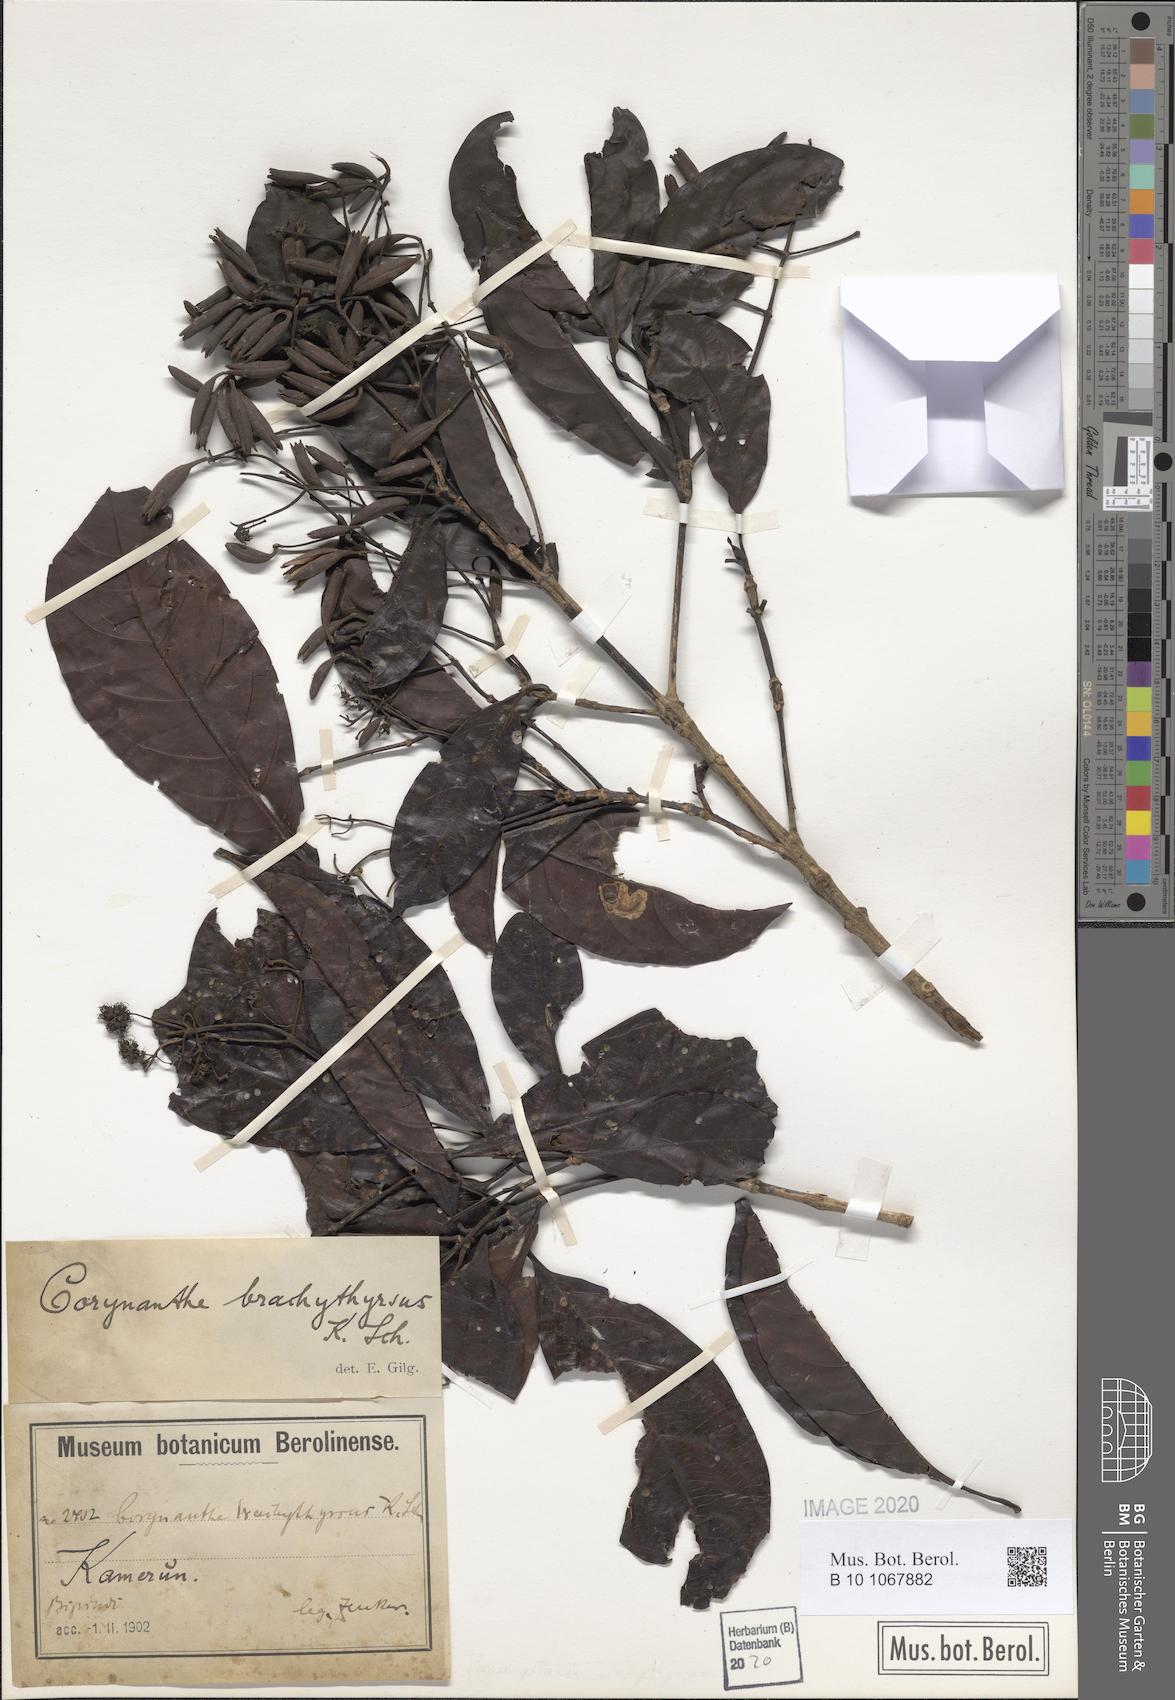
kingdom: Plantae
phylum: Tracheophyta
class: Magnoliopsida
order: Gentianales
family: Rubiaceae
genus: Corynanthe
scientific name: Corynanthe macroceras
